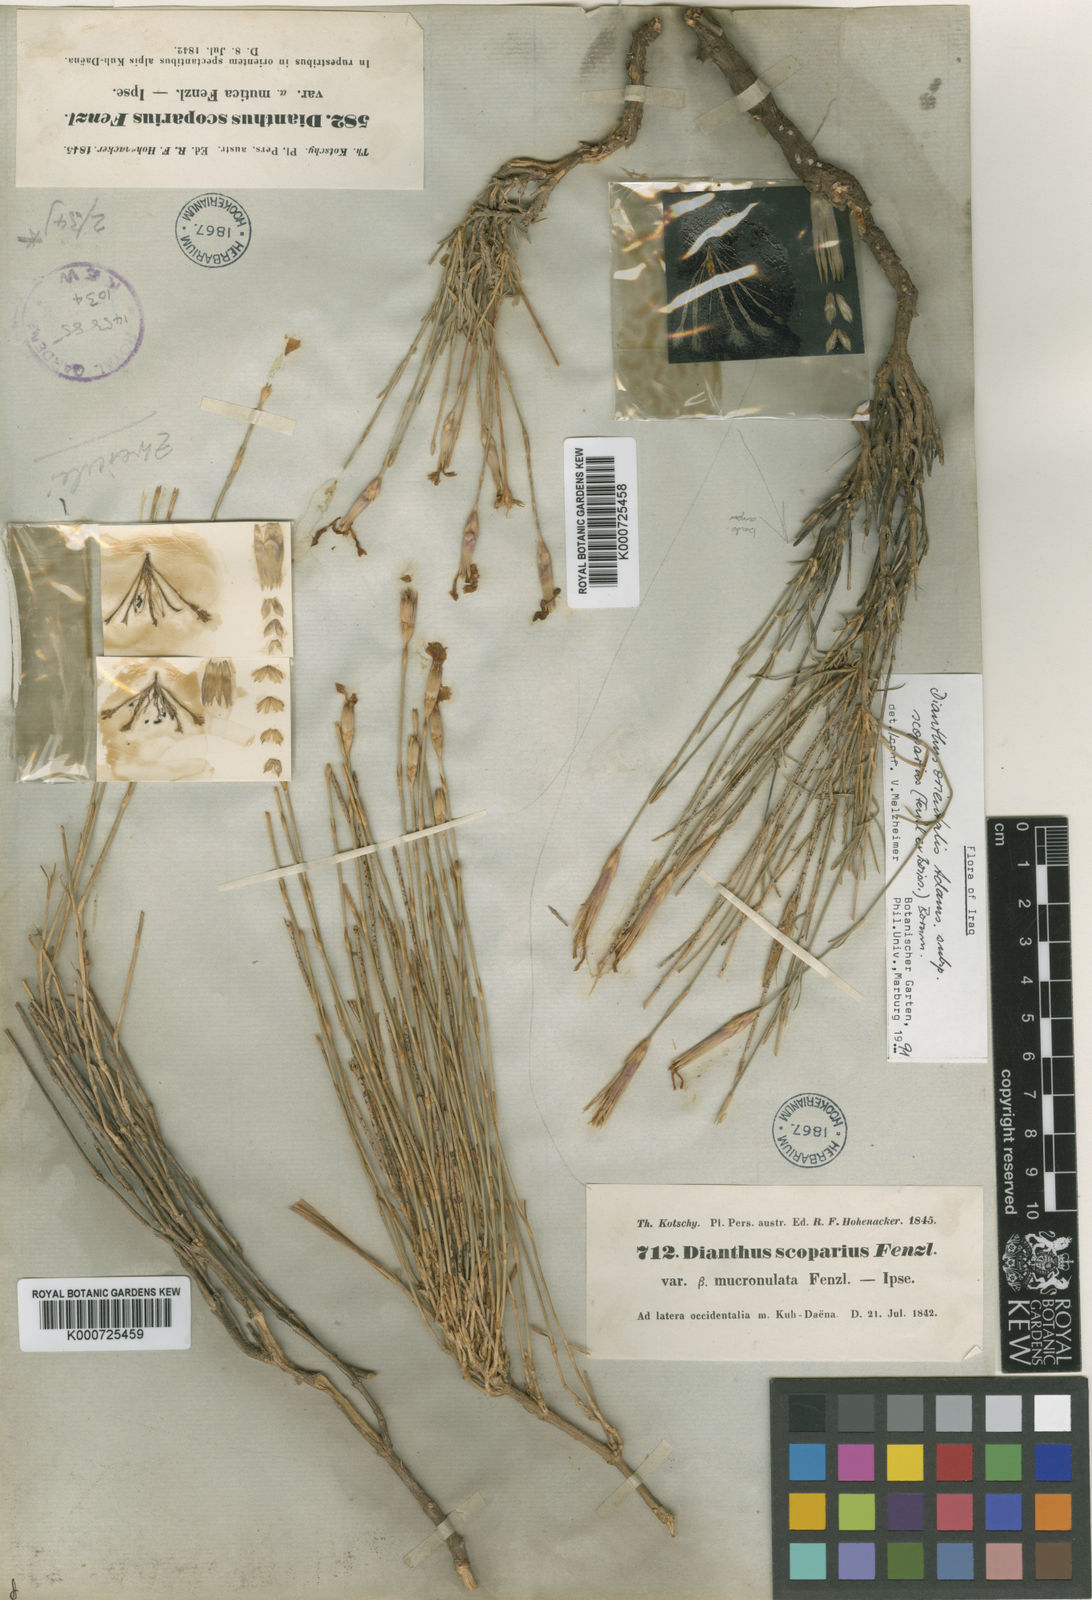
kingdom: Plantae
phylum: Tracheophyta
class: Magnoliopsida
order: Caryophyllales
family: Caryophyllaceae
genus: Dianthus
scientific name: Dianthus orientalis
